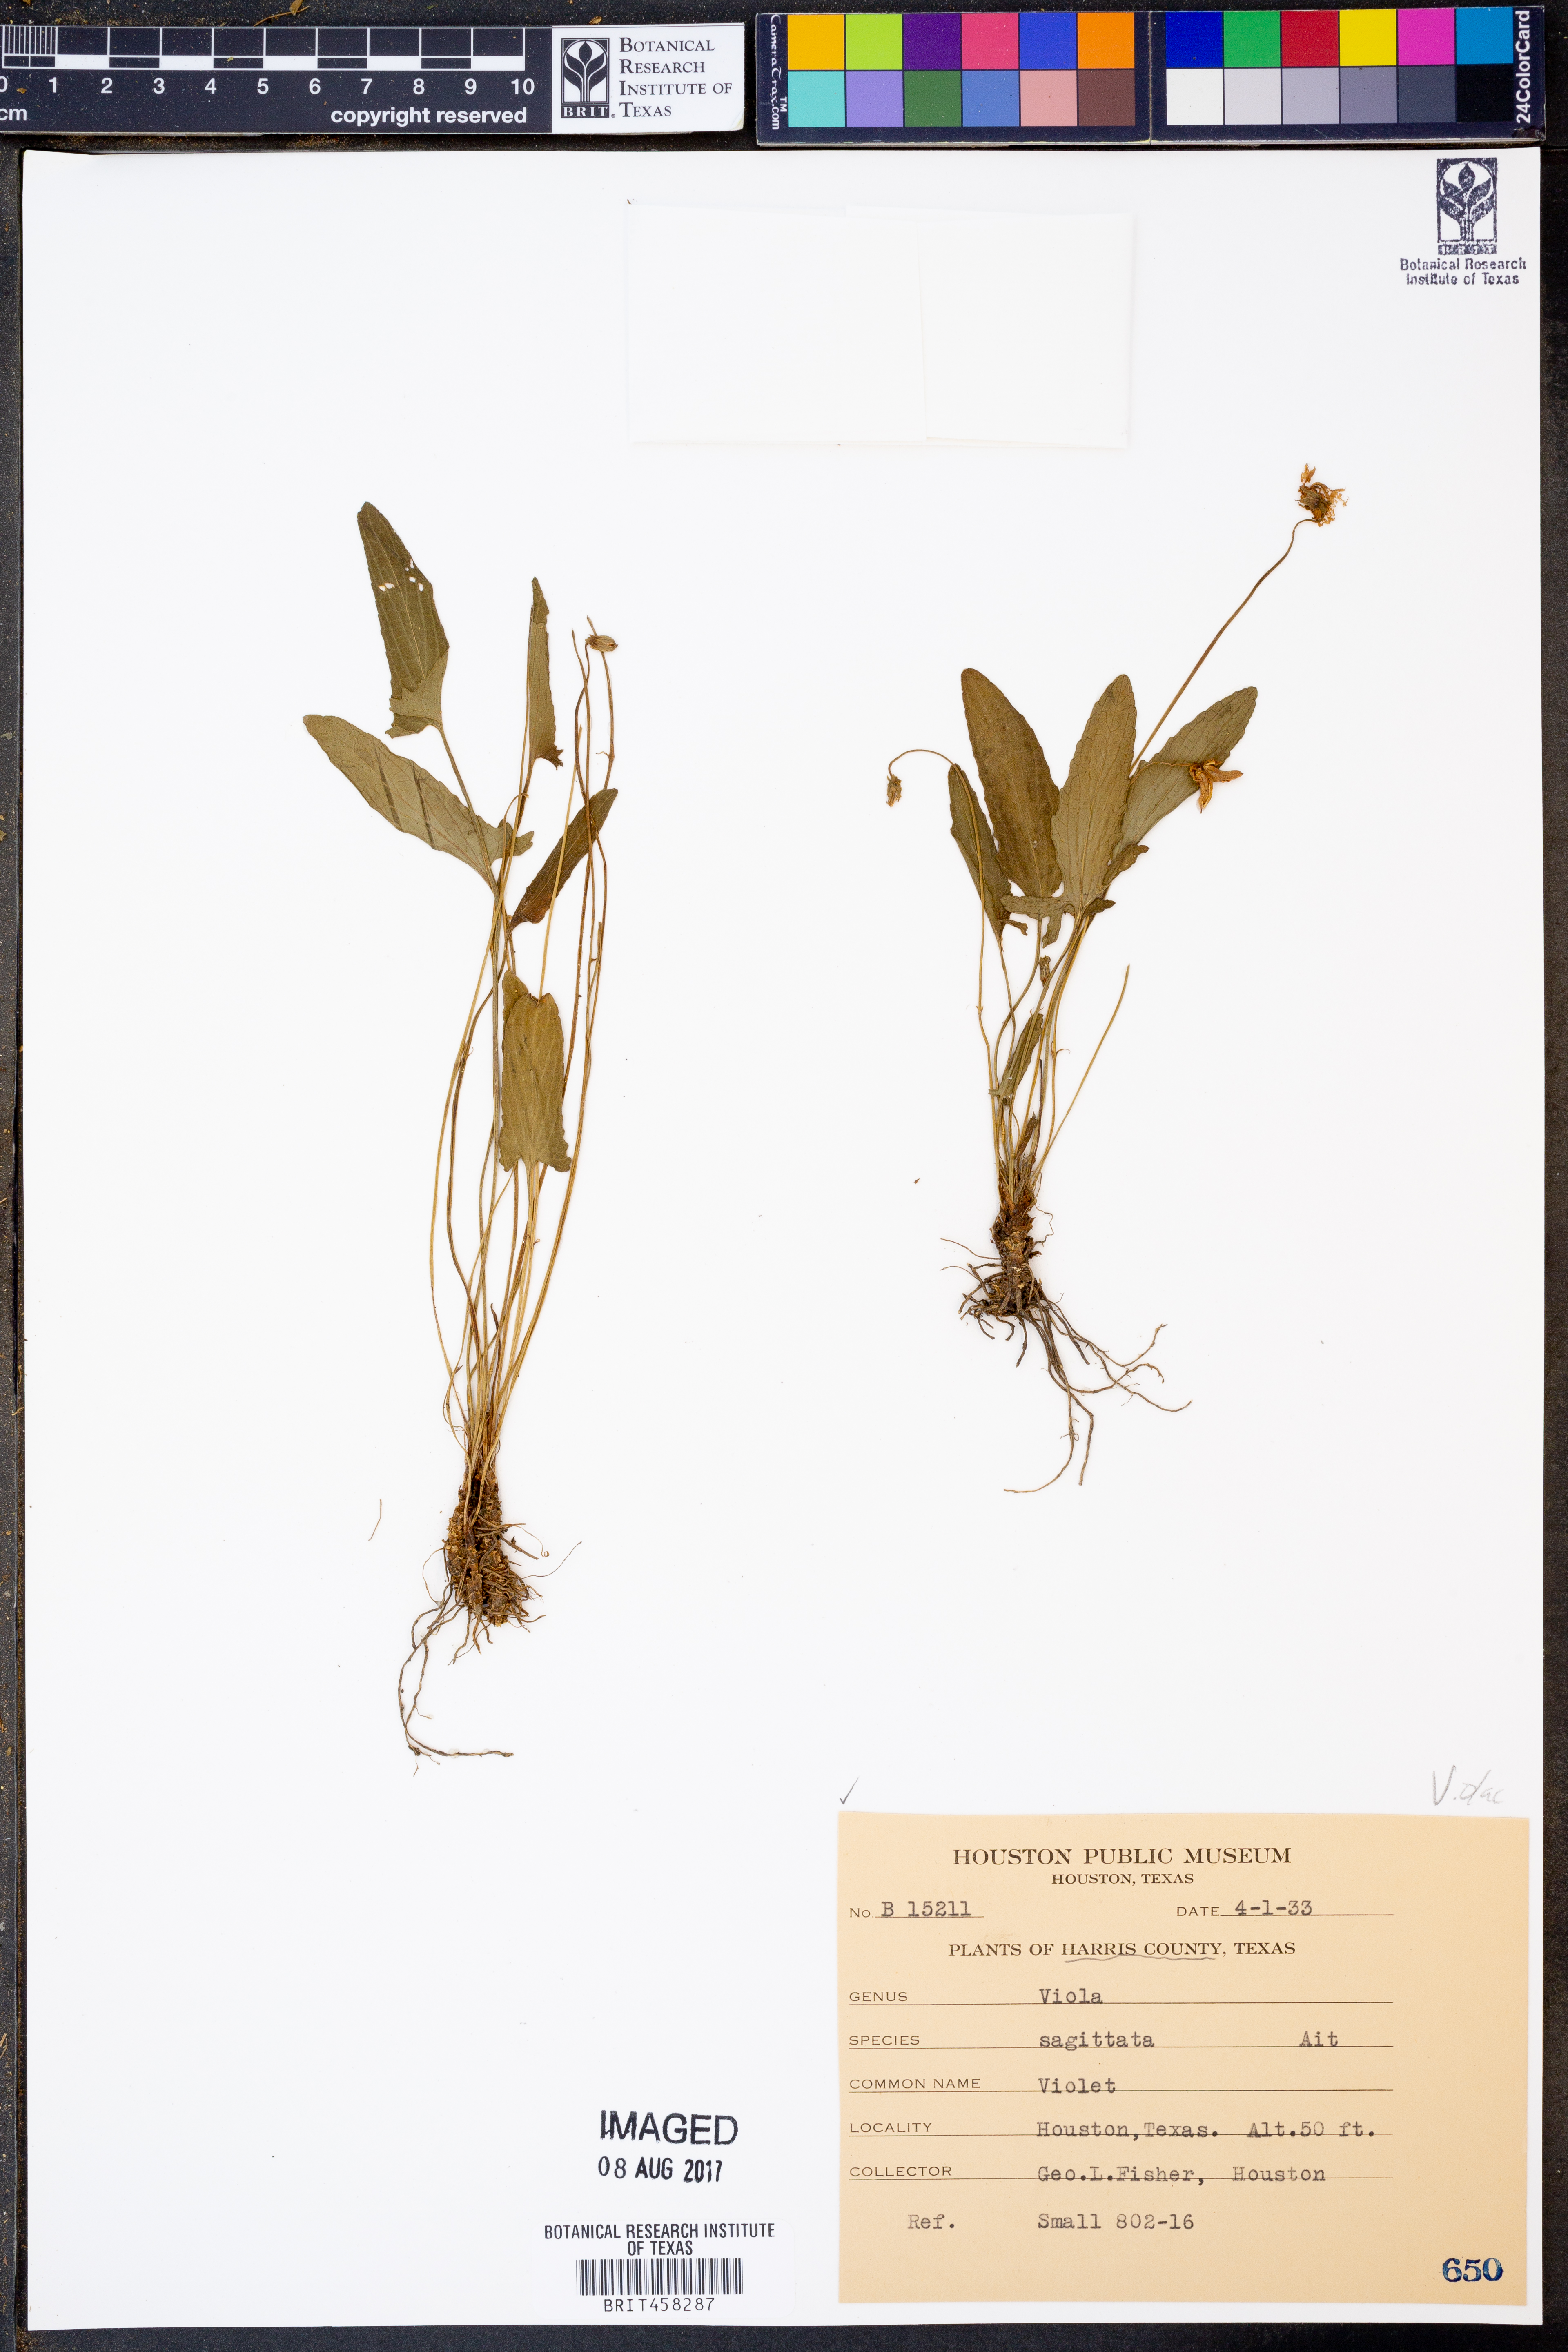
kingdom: Plantae
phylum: Tracheophyta
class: Magnoliopsida
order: Malpighiales
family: Violaceae
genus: Viola
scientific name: Viola sagittata
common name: Arrowhead violet
